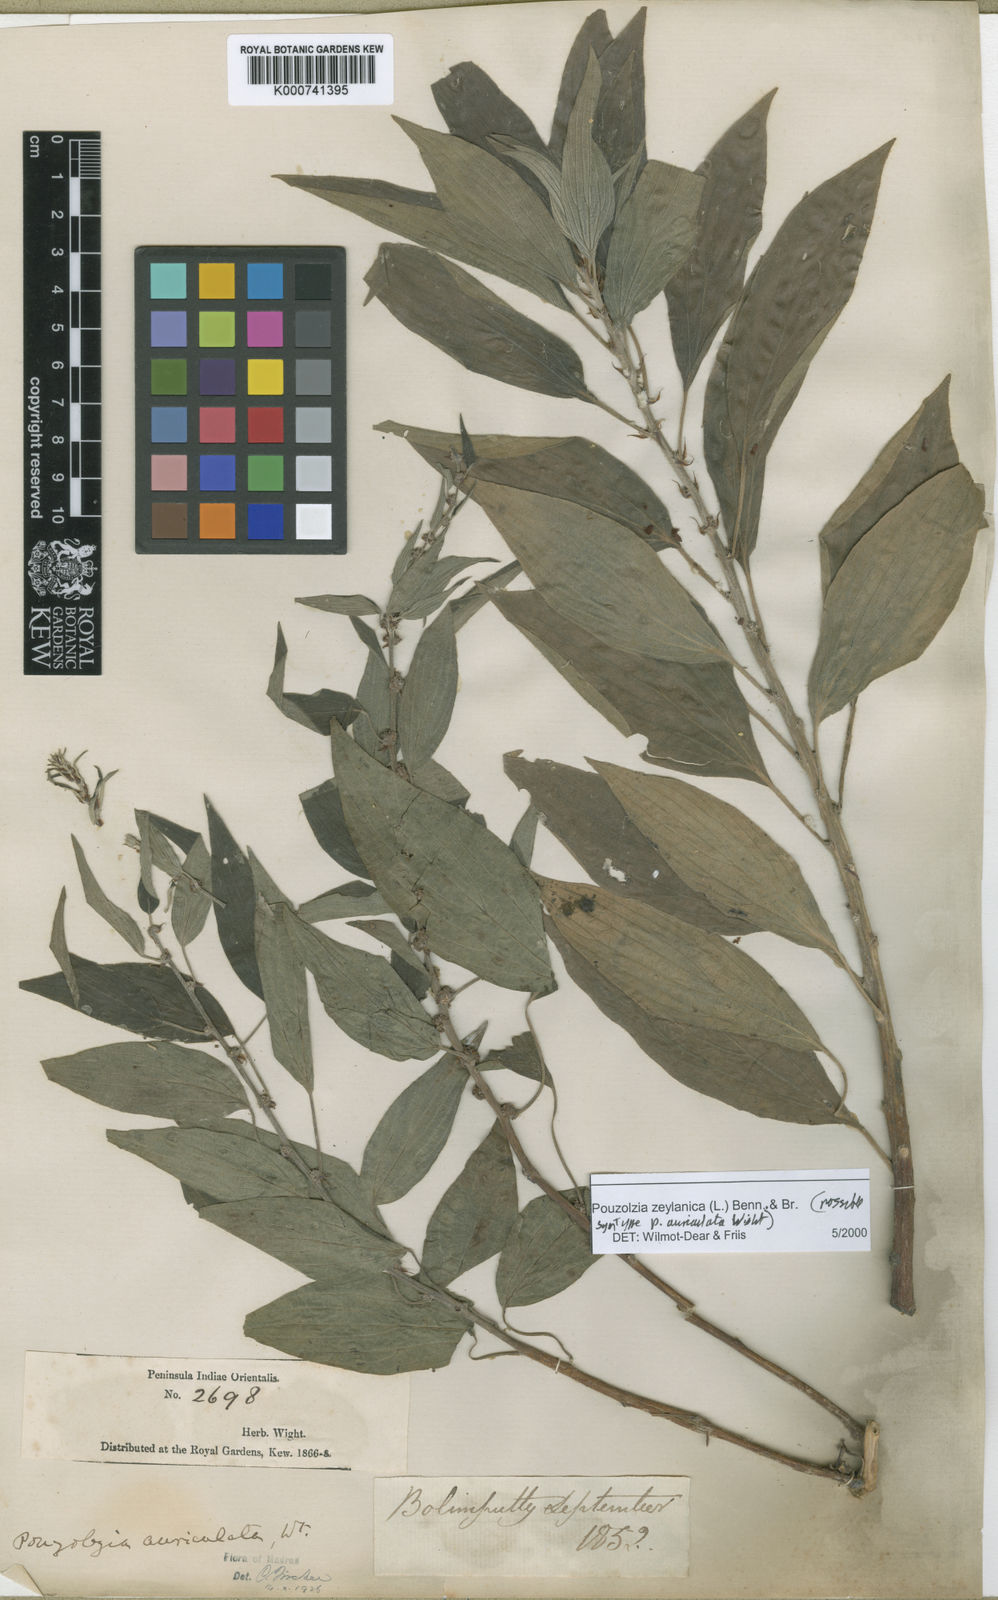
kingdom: Plantae
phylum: Tracheophyta
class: Magnoliopsida
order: Rosales
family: Urticaceae
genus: Pouzolzia
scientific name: Pouzolzia zeylanica
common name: Graceful pouzolzsbush
